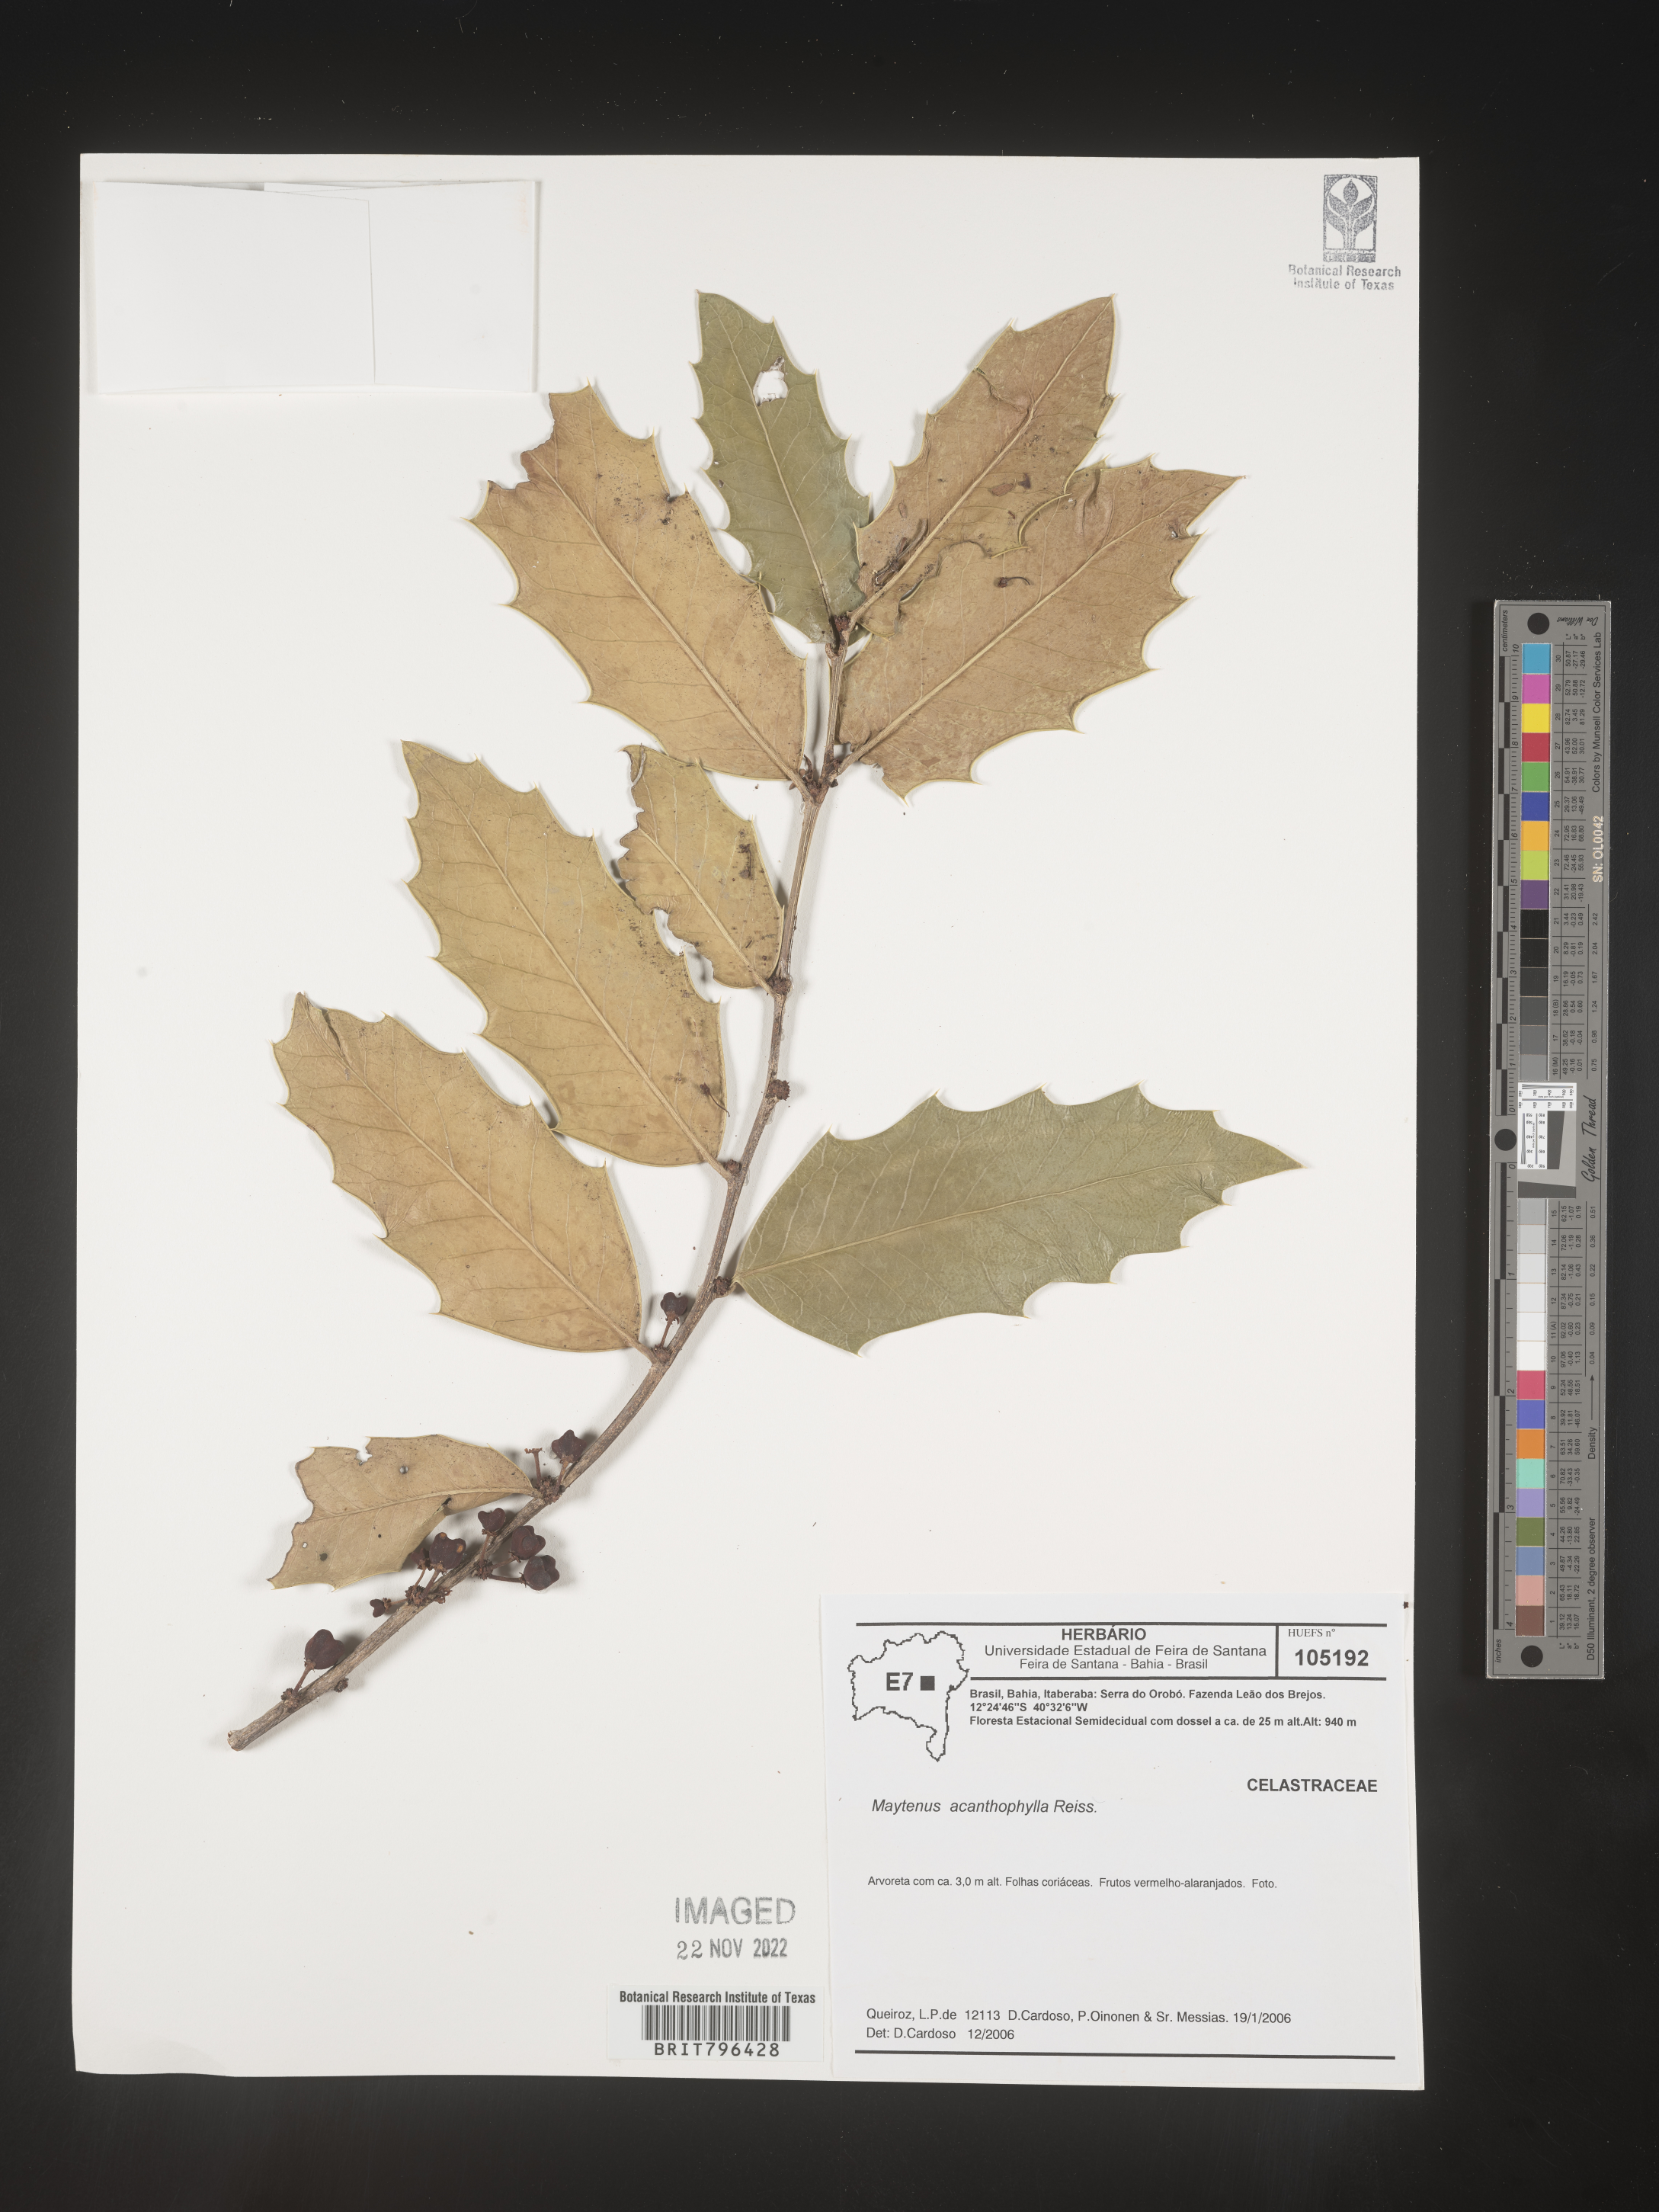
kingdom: Plantae
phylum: Tracheophyta
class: Magnoliopsida
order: Celastrales
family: Celastraceae
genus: Maytenus
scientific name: Maytenus
